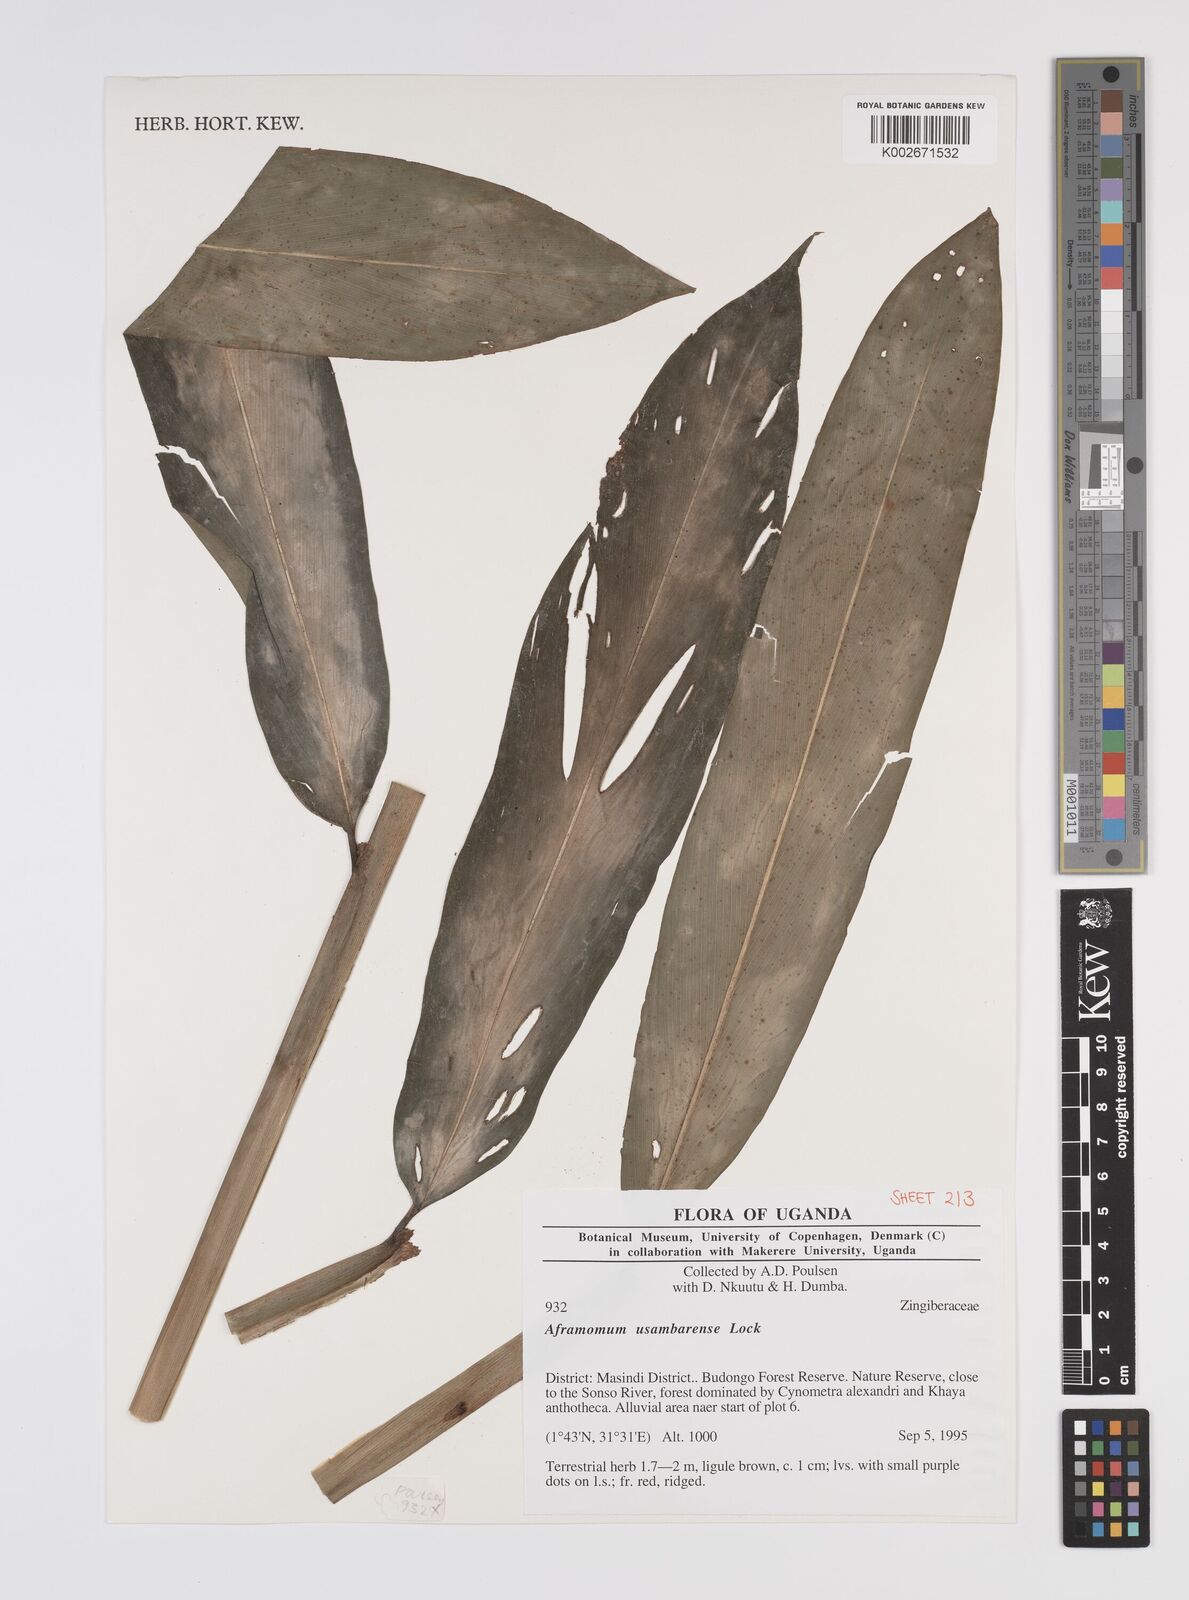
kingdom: Plantae
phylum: Tracheophyta
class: Liliopsida
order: Zingiberales
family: Zingiberaceae
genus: Aframomum
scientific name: Aframomum corrorima
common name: Ethiopian cardamom
